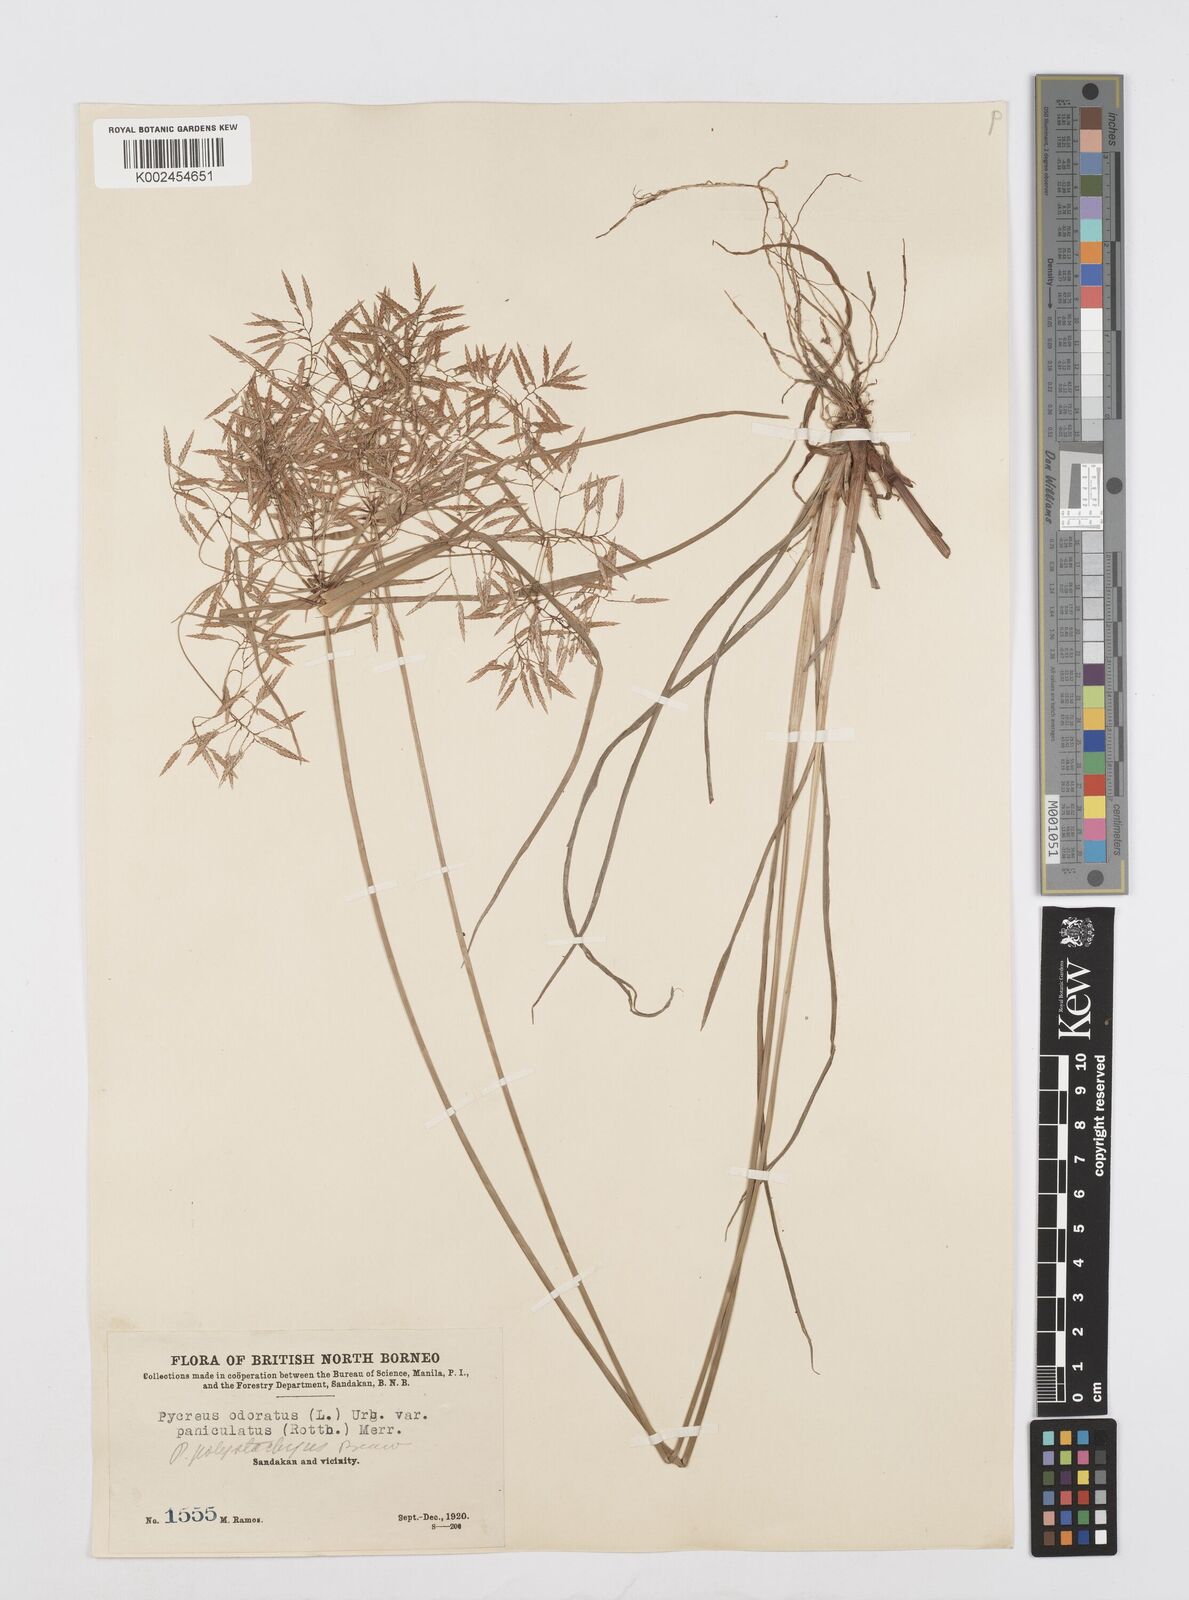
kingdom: Plantae
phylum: Tracheophyta
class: Liliopsida
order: Poales
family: Cyperaceae
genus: Cyperus
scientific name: Cyperus polystachyos
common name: Bunchy flat sedge
